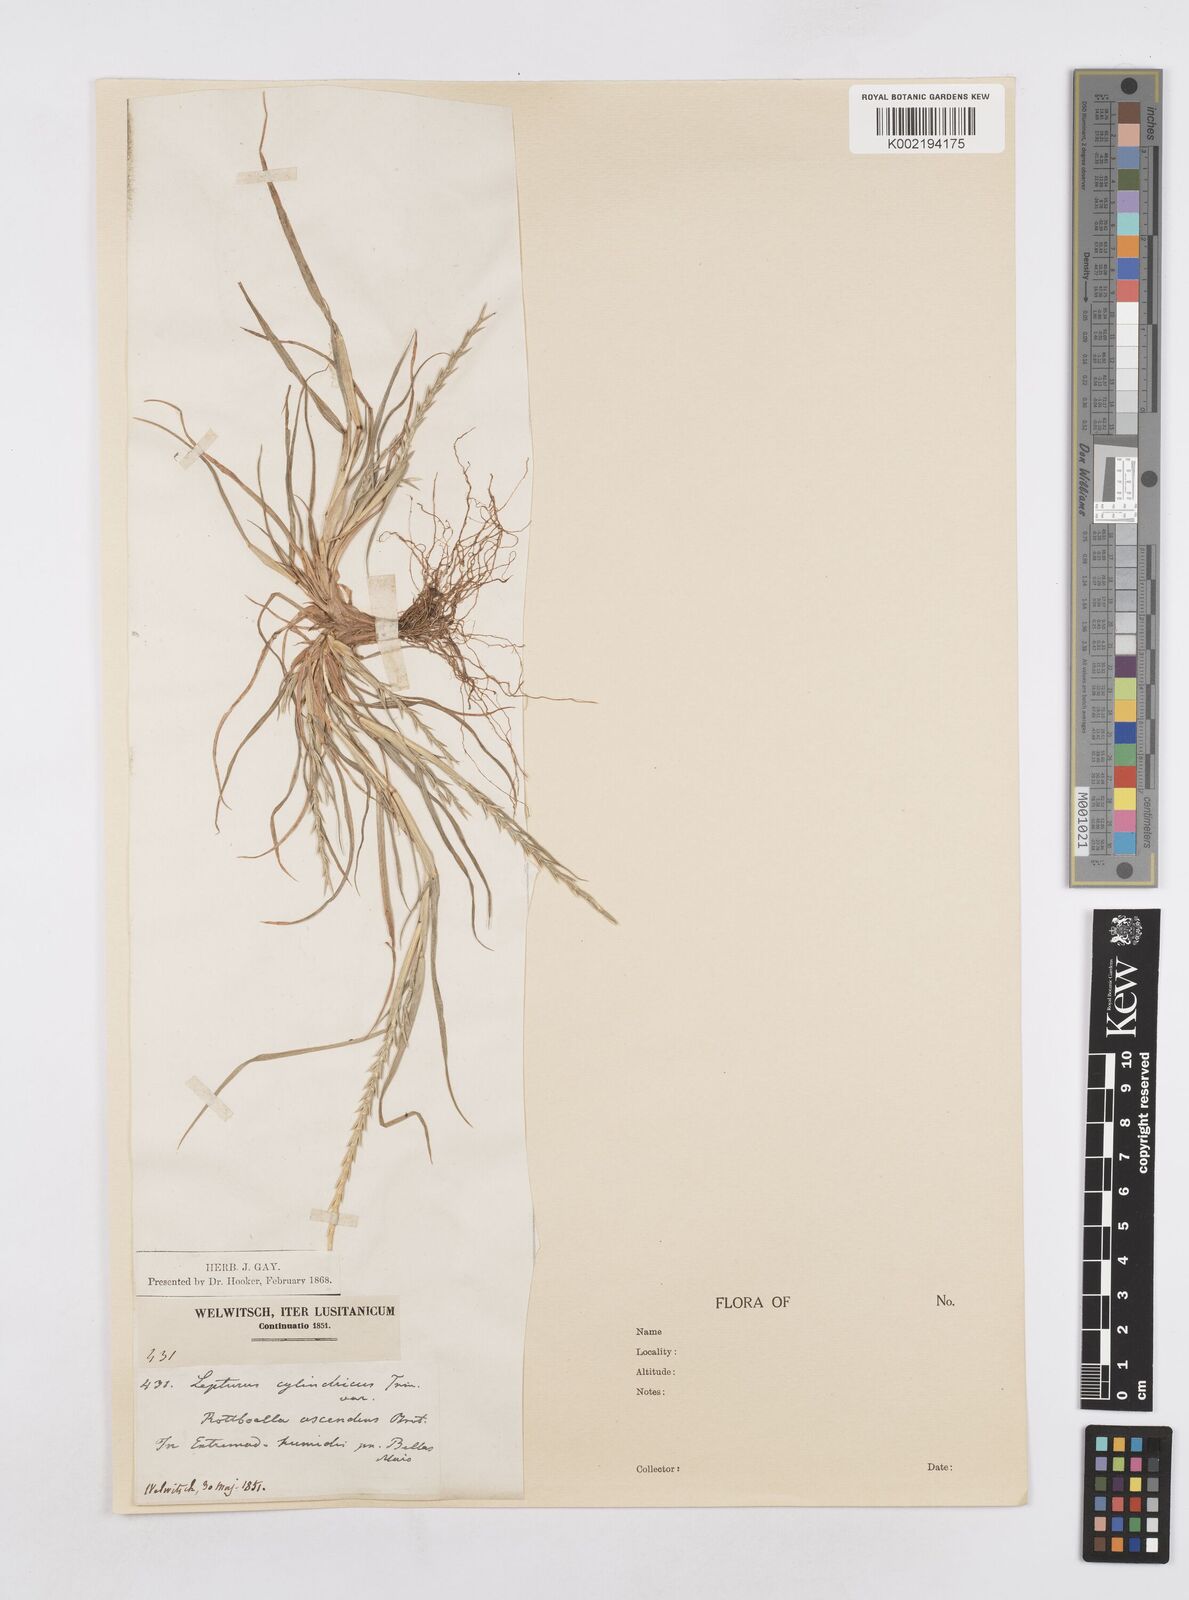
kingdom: Plantae
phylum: Tracheophyta
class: Liliopsida
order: Poales
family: Poaceae
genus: Parapholis
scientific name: Parapholis cylindrica
